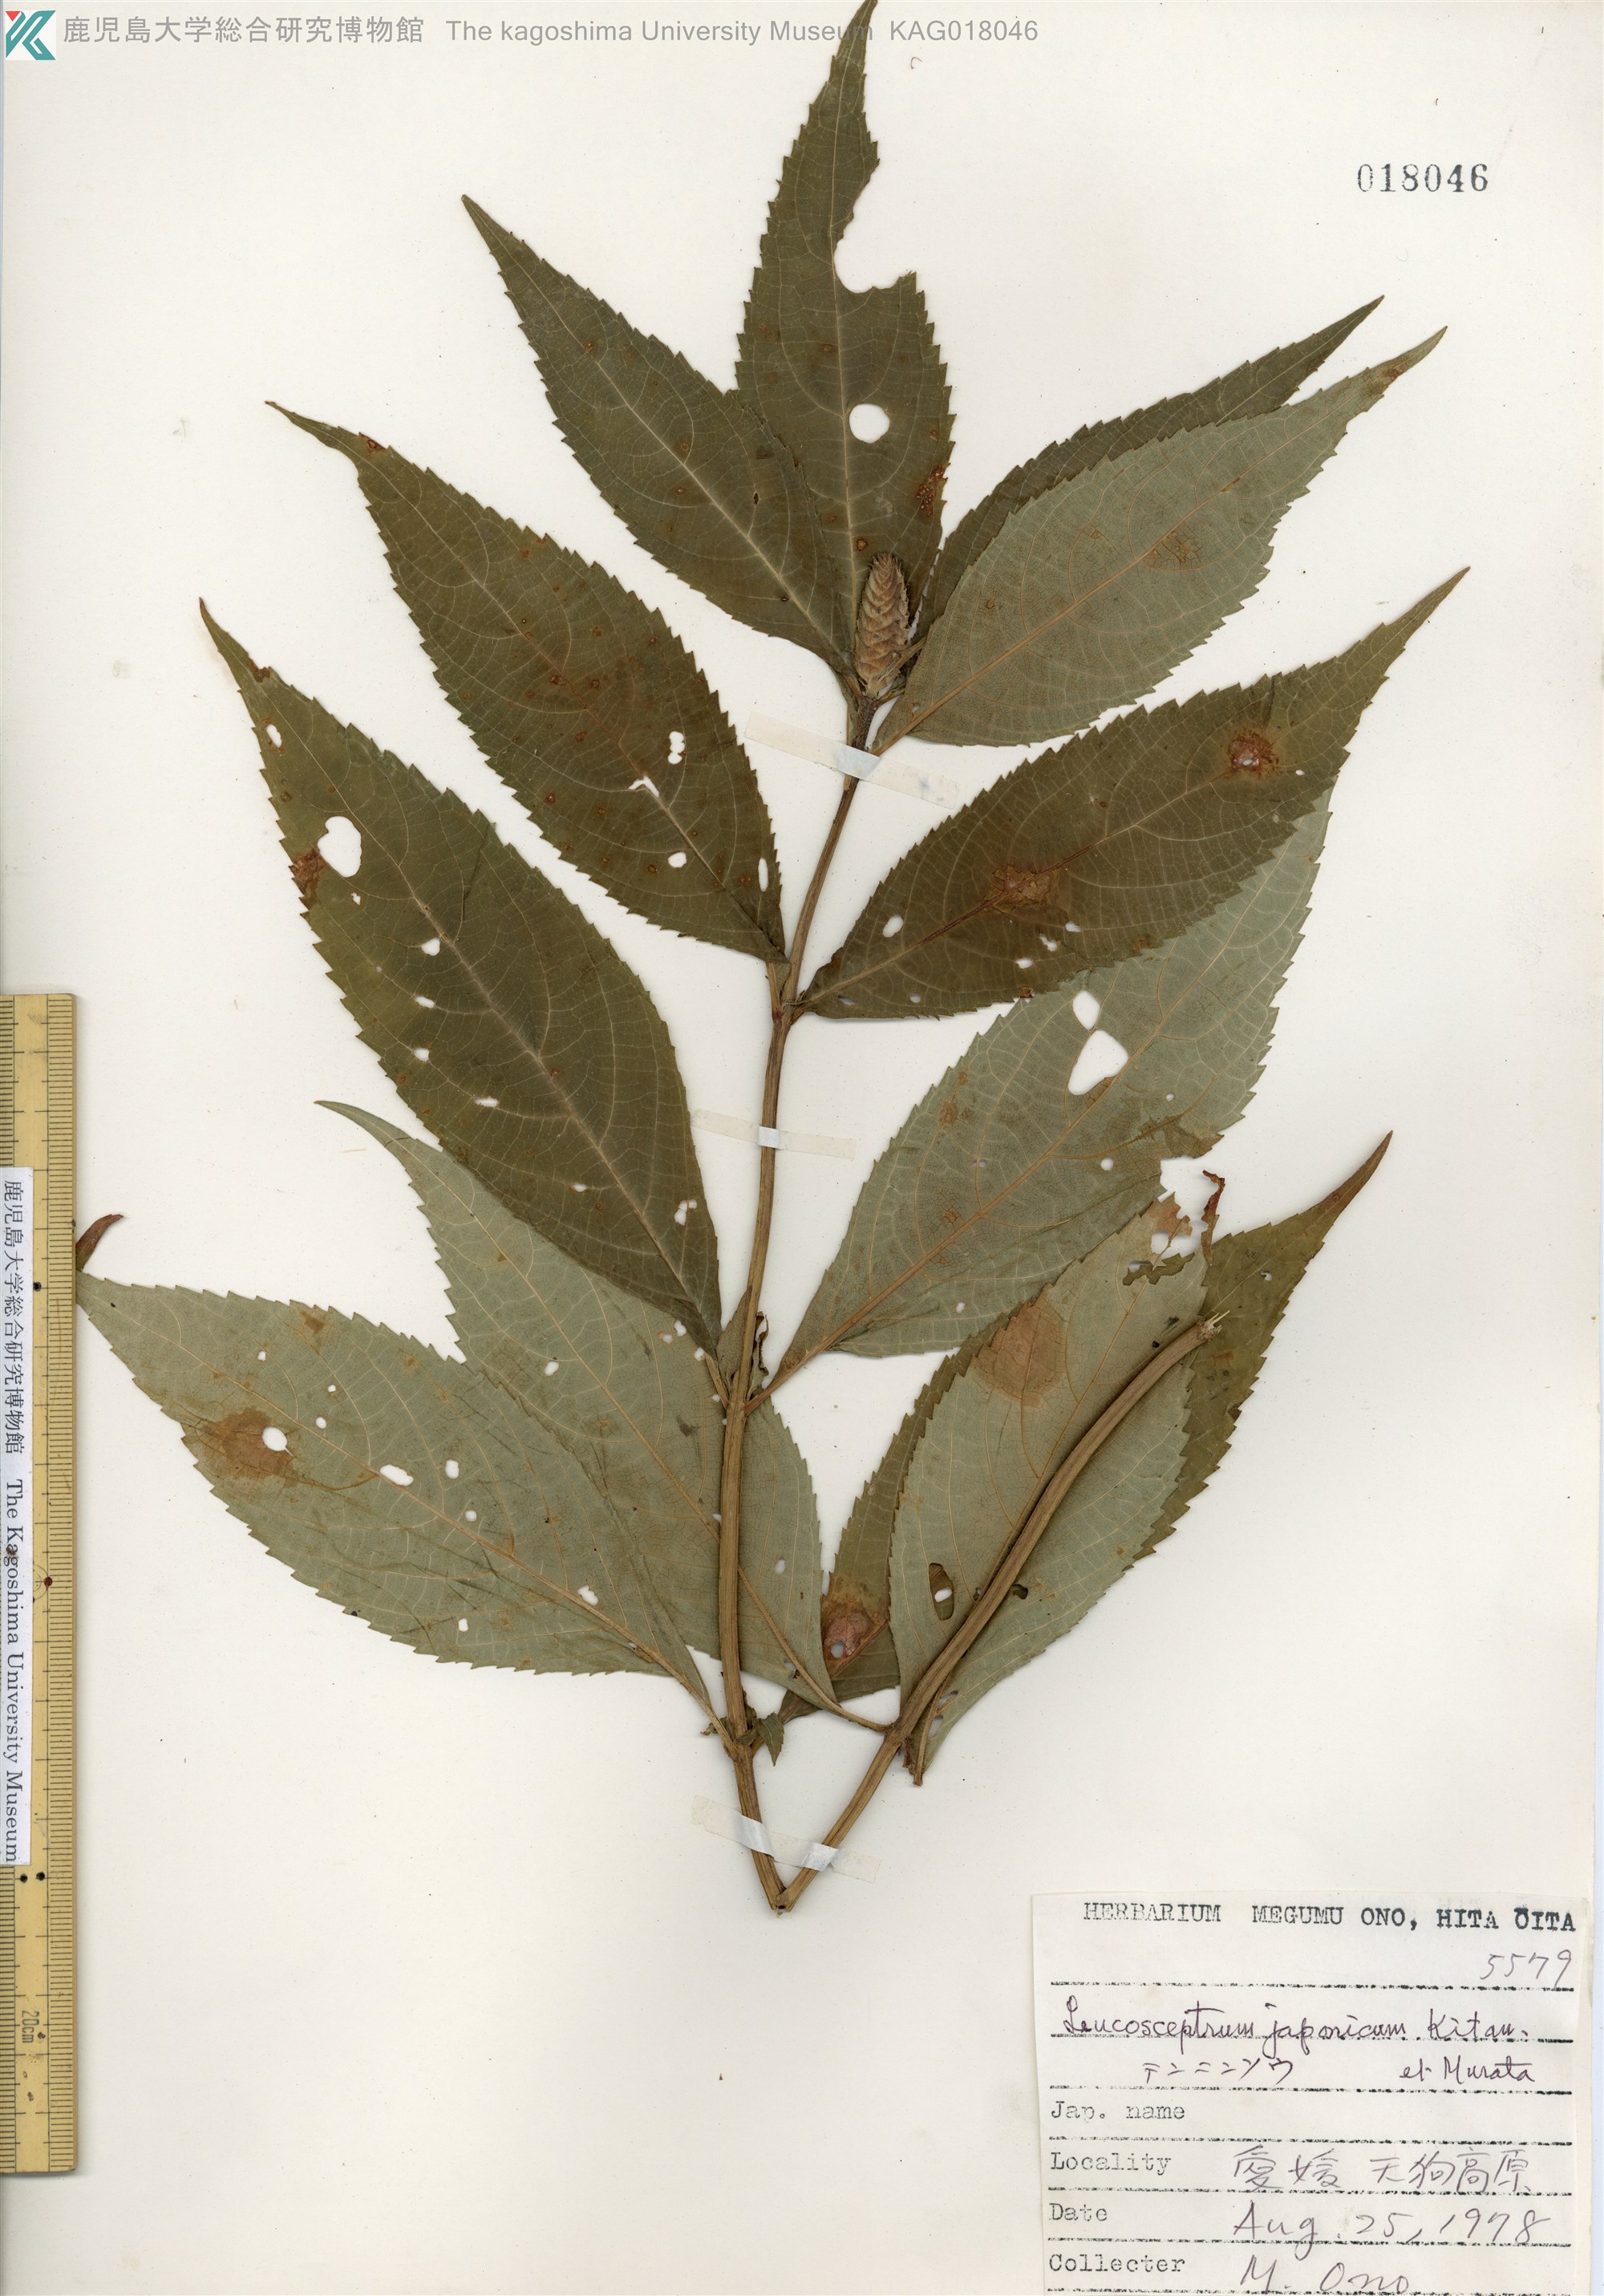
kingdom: Plantae
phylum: Tracheophyta
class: Magnoliopsida
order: Lamiales
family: Lamiaceae
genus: Comanthosphace
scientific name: Comanthosphace japonica
